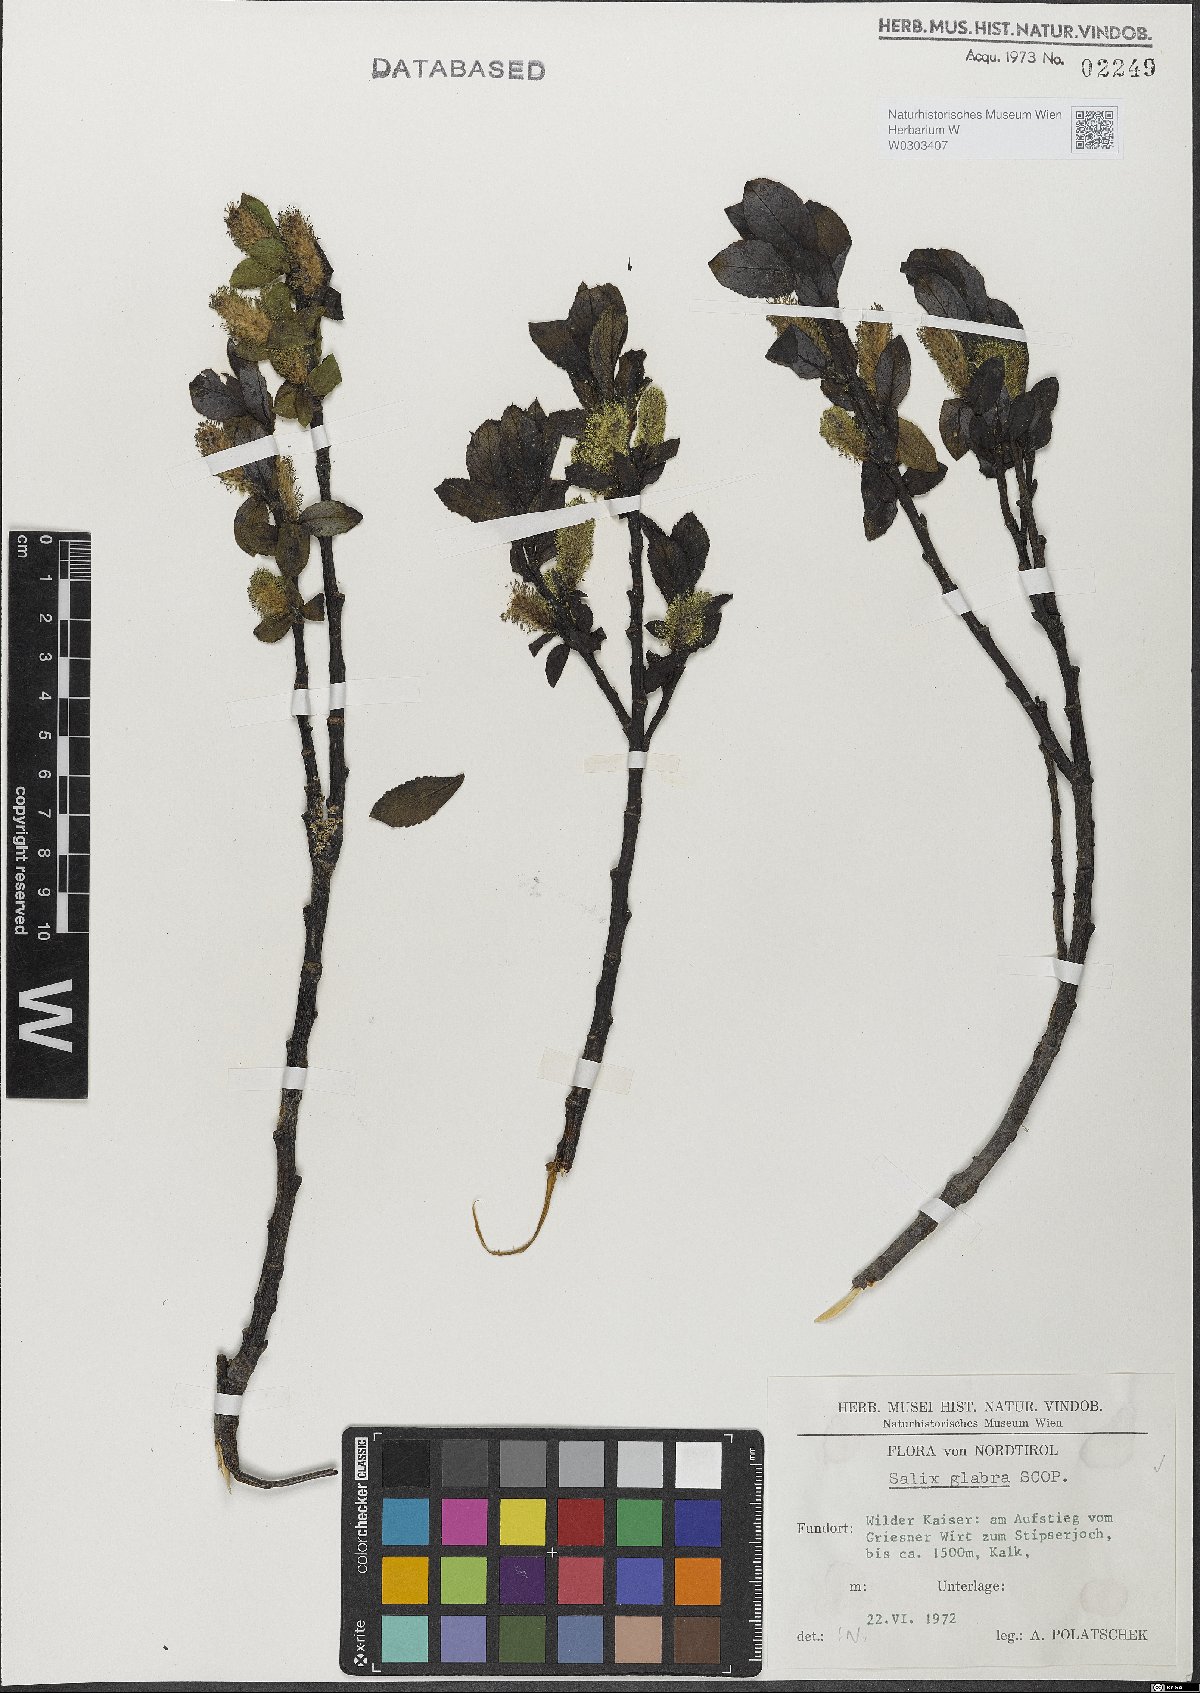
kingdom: Plantae
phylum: Tracheophyta
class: Magnoliopsida
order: Malpighiales
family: Salicaceae
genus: Salix
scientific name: Salix glabra
